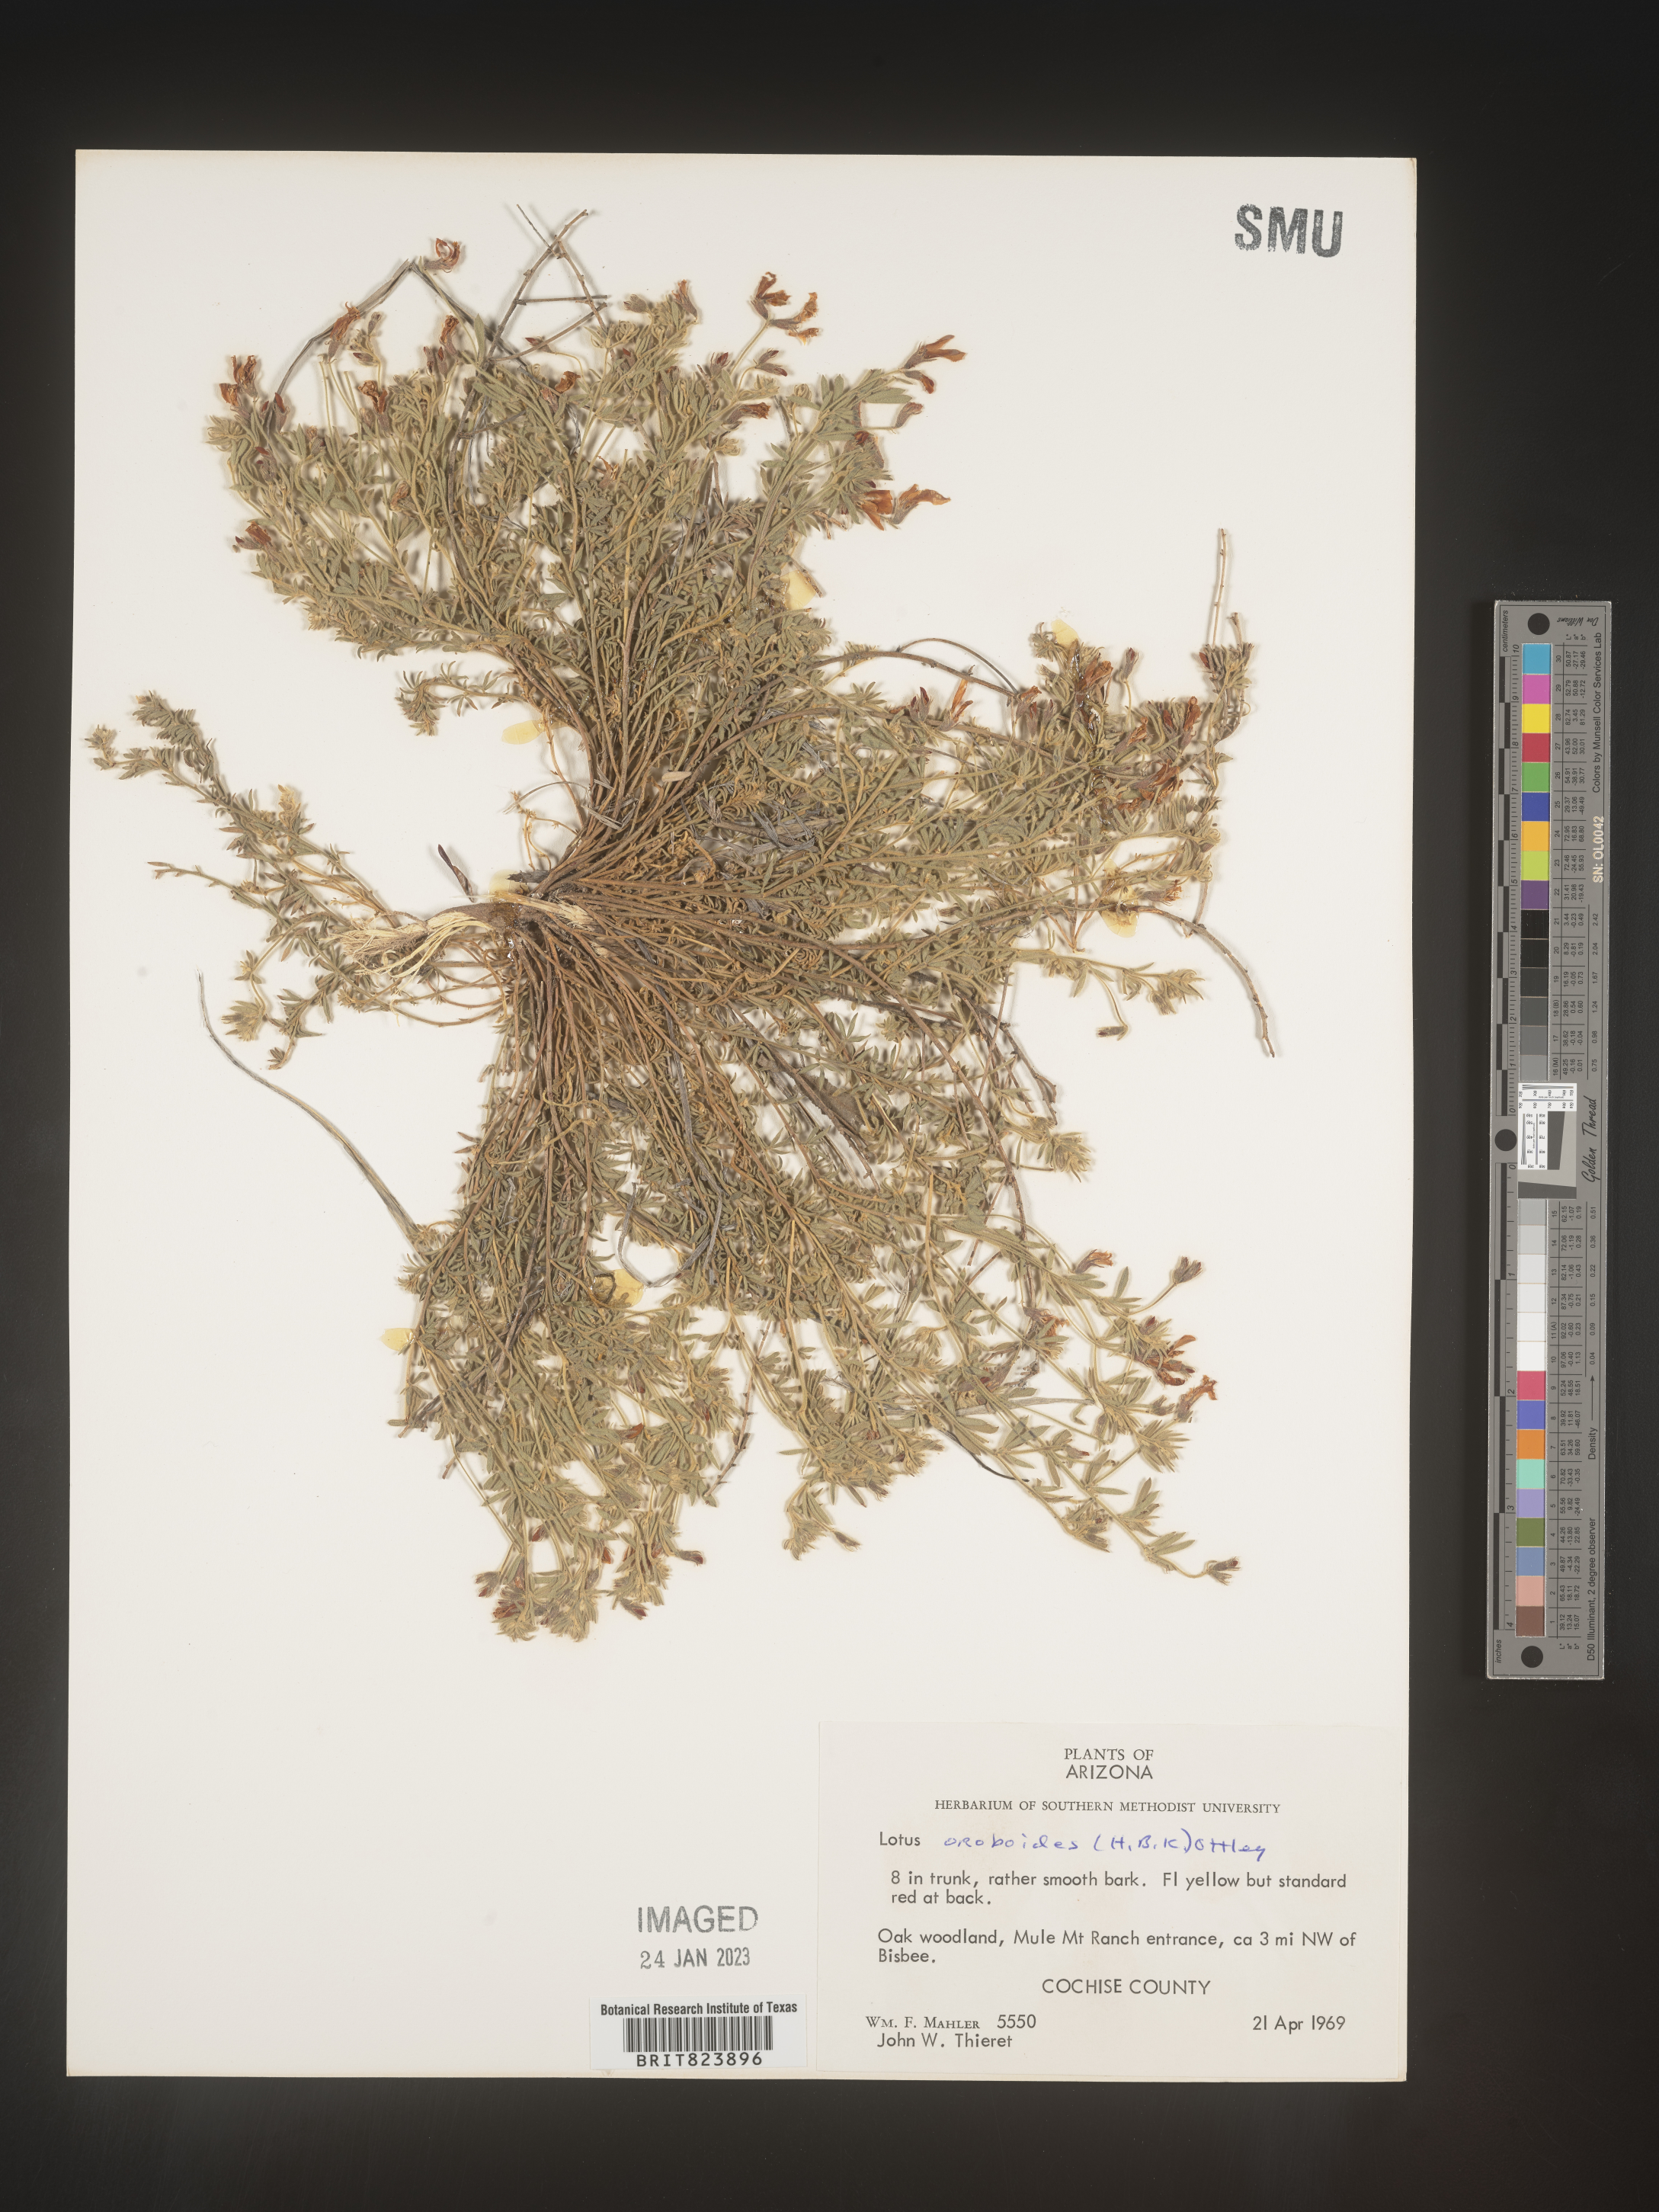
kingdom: Plantae
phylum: Tracheophyta
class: Magnoliopsida
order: Fabales
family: Fabaceae
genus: Lotus
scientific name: Lotus
